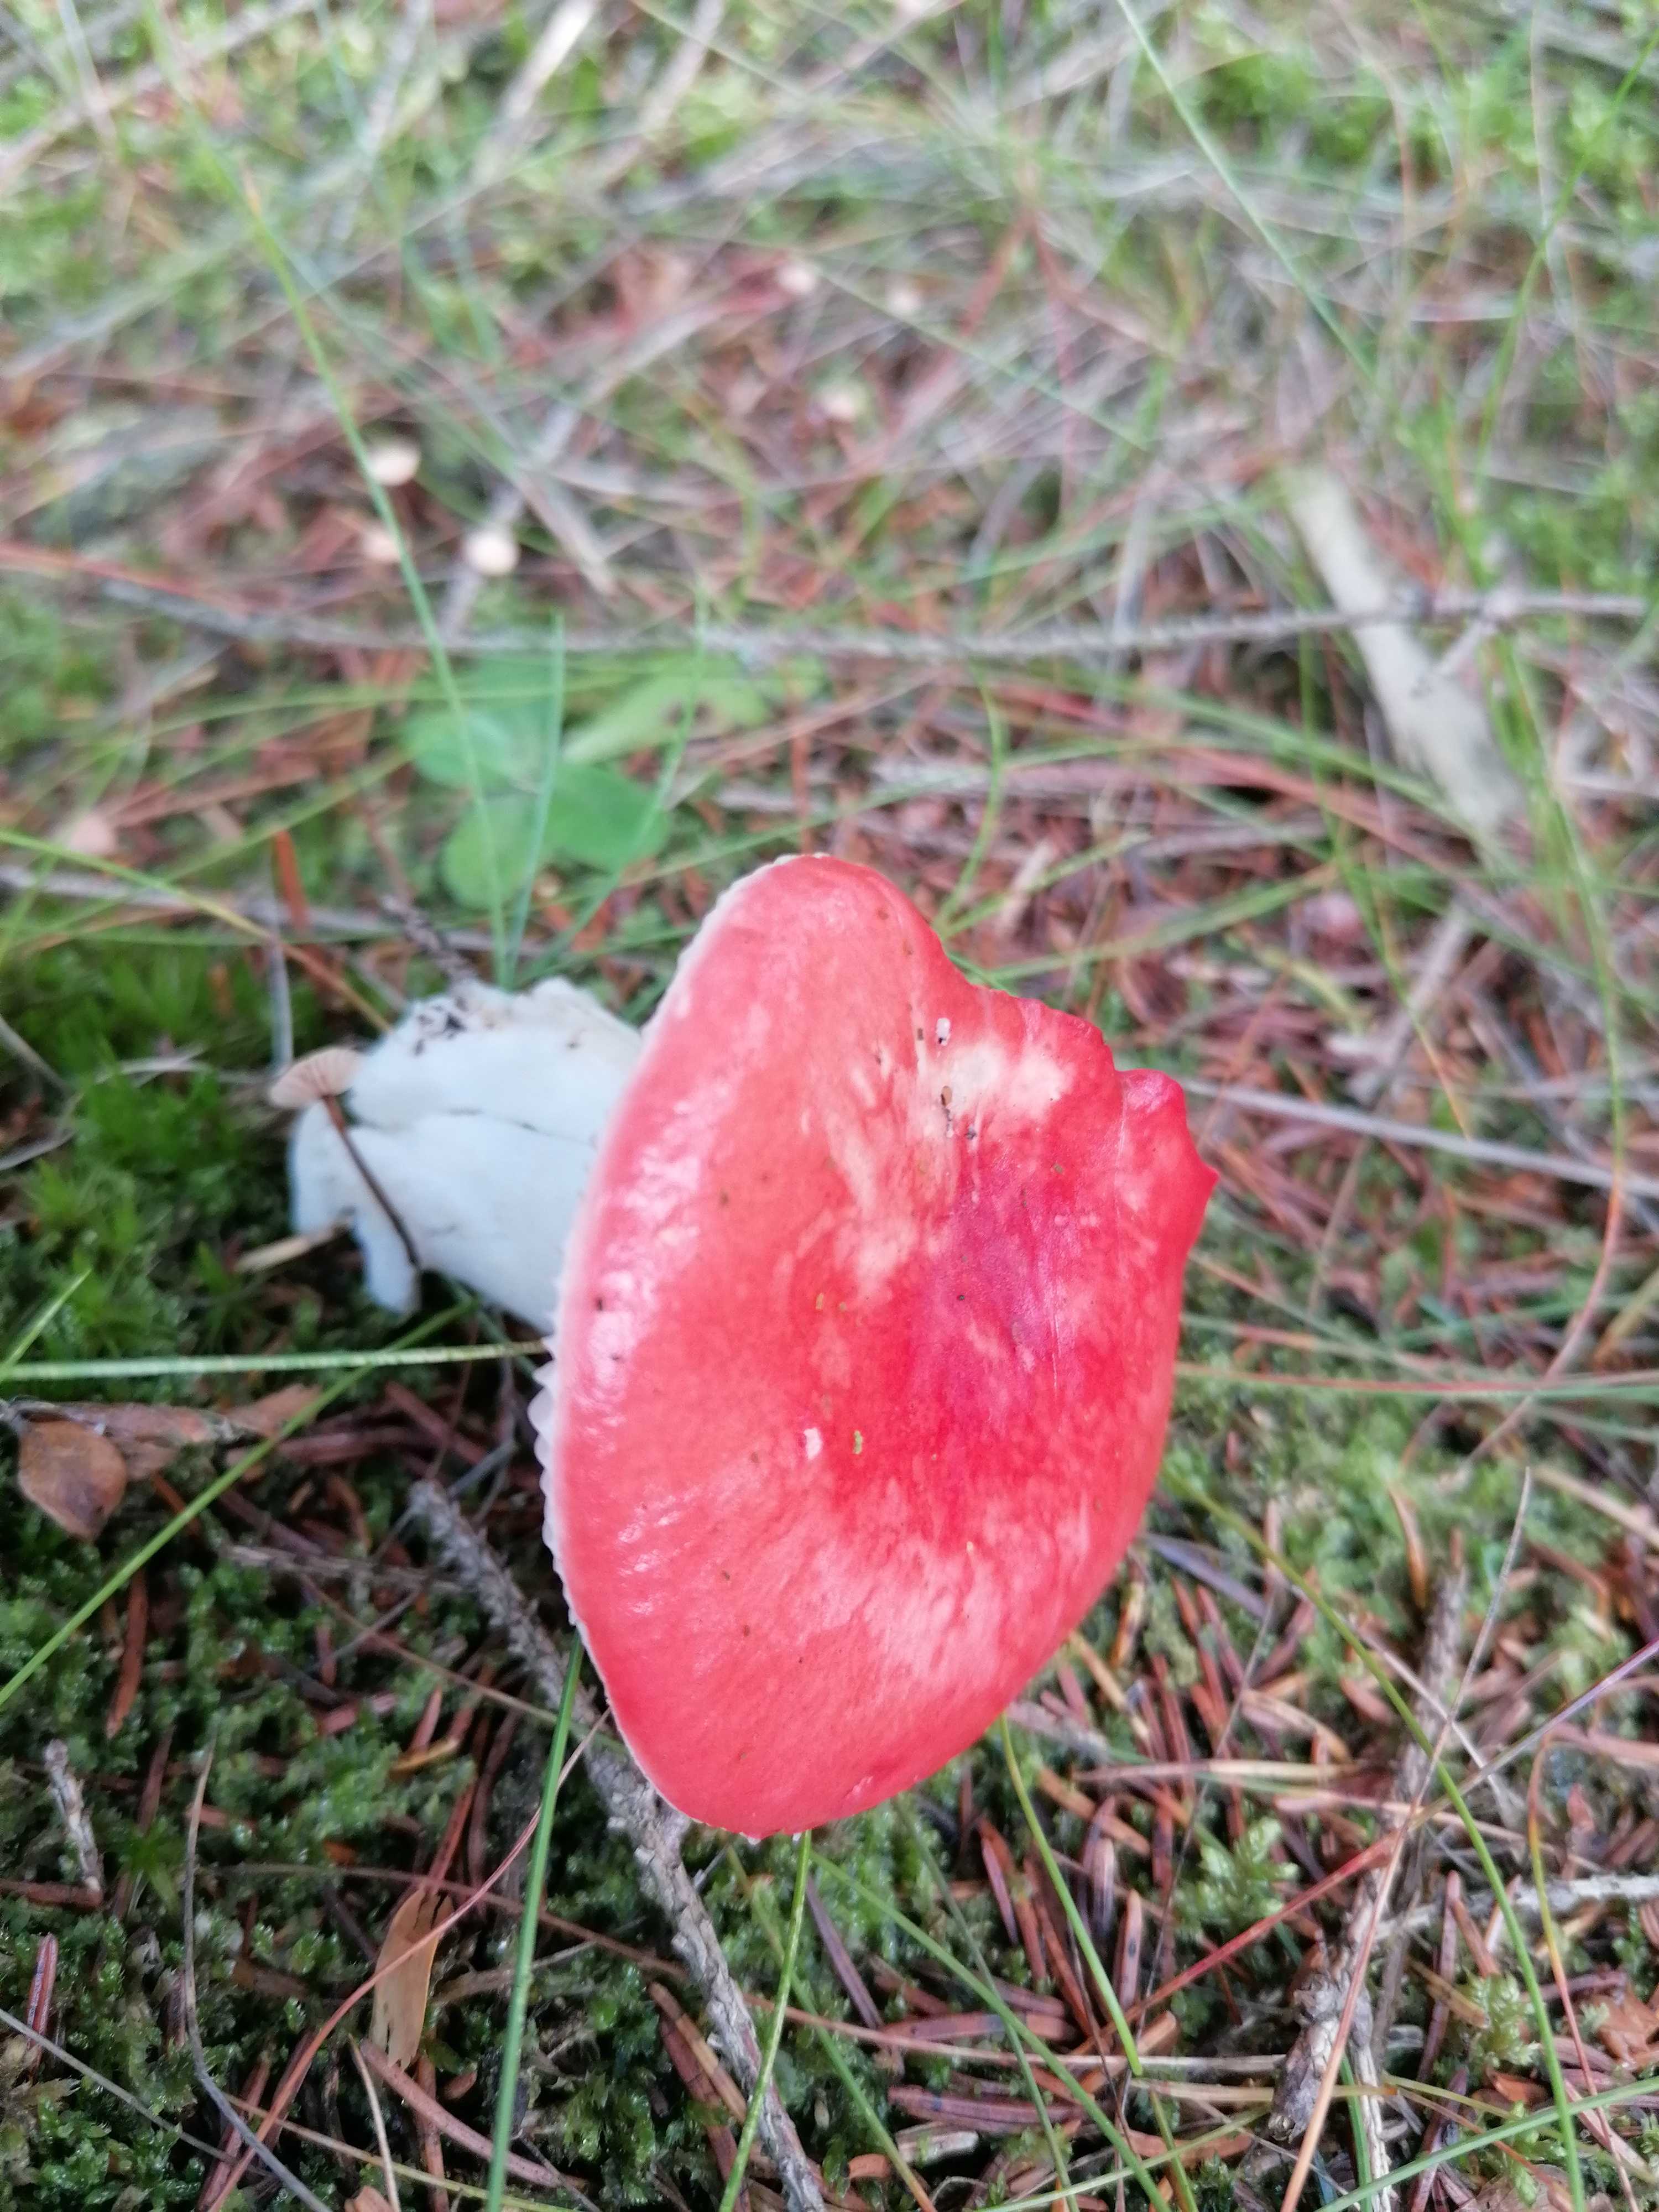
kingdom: Fungi
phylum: Basidiomycota
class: Agaricomycetes
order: Russulales
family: Russulaceae
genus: Russula
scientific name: Russula emetica
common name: stor gift-skørhat
